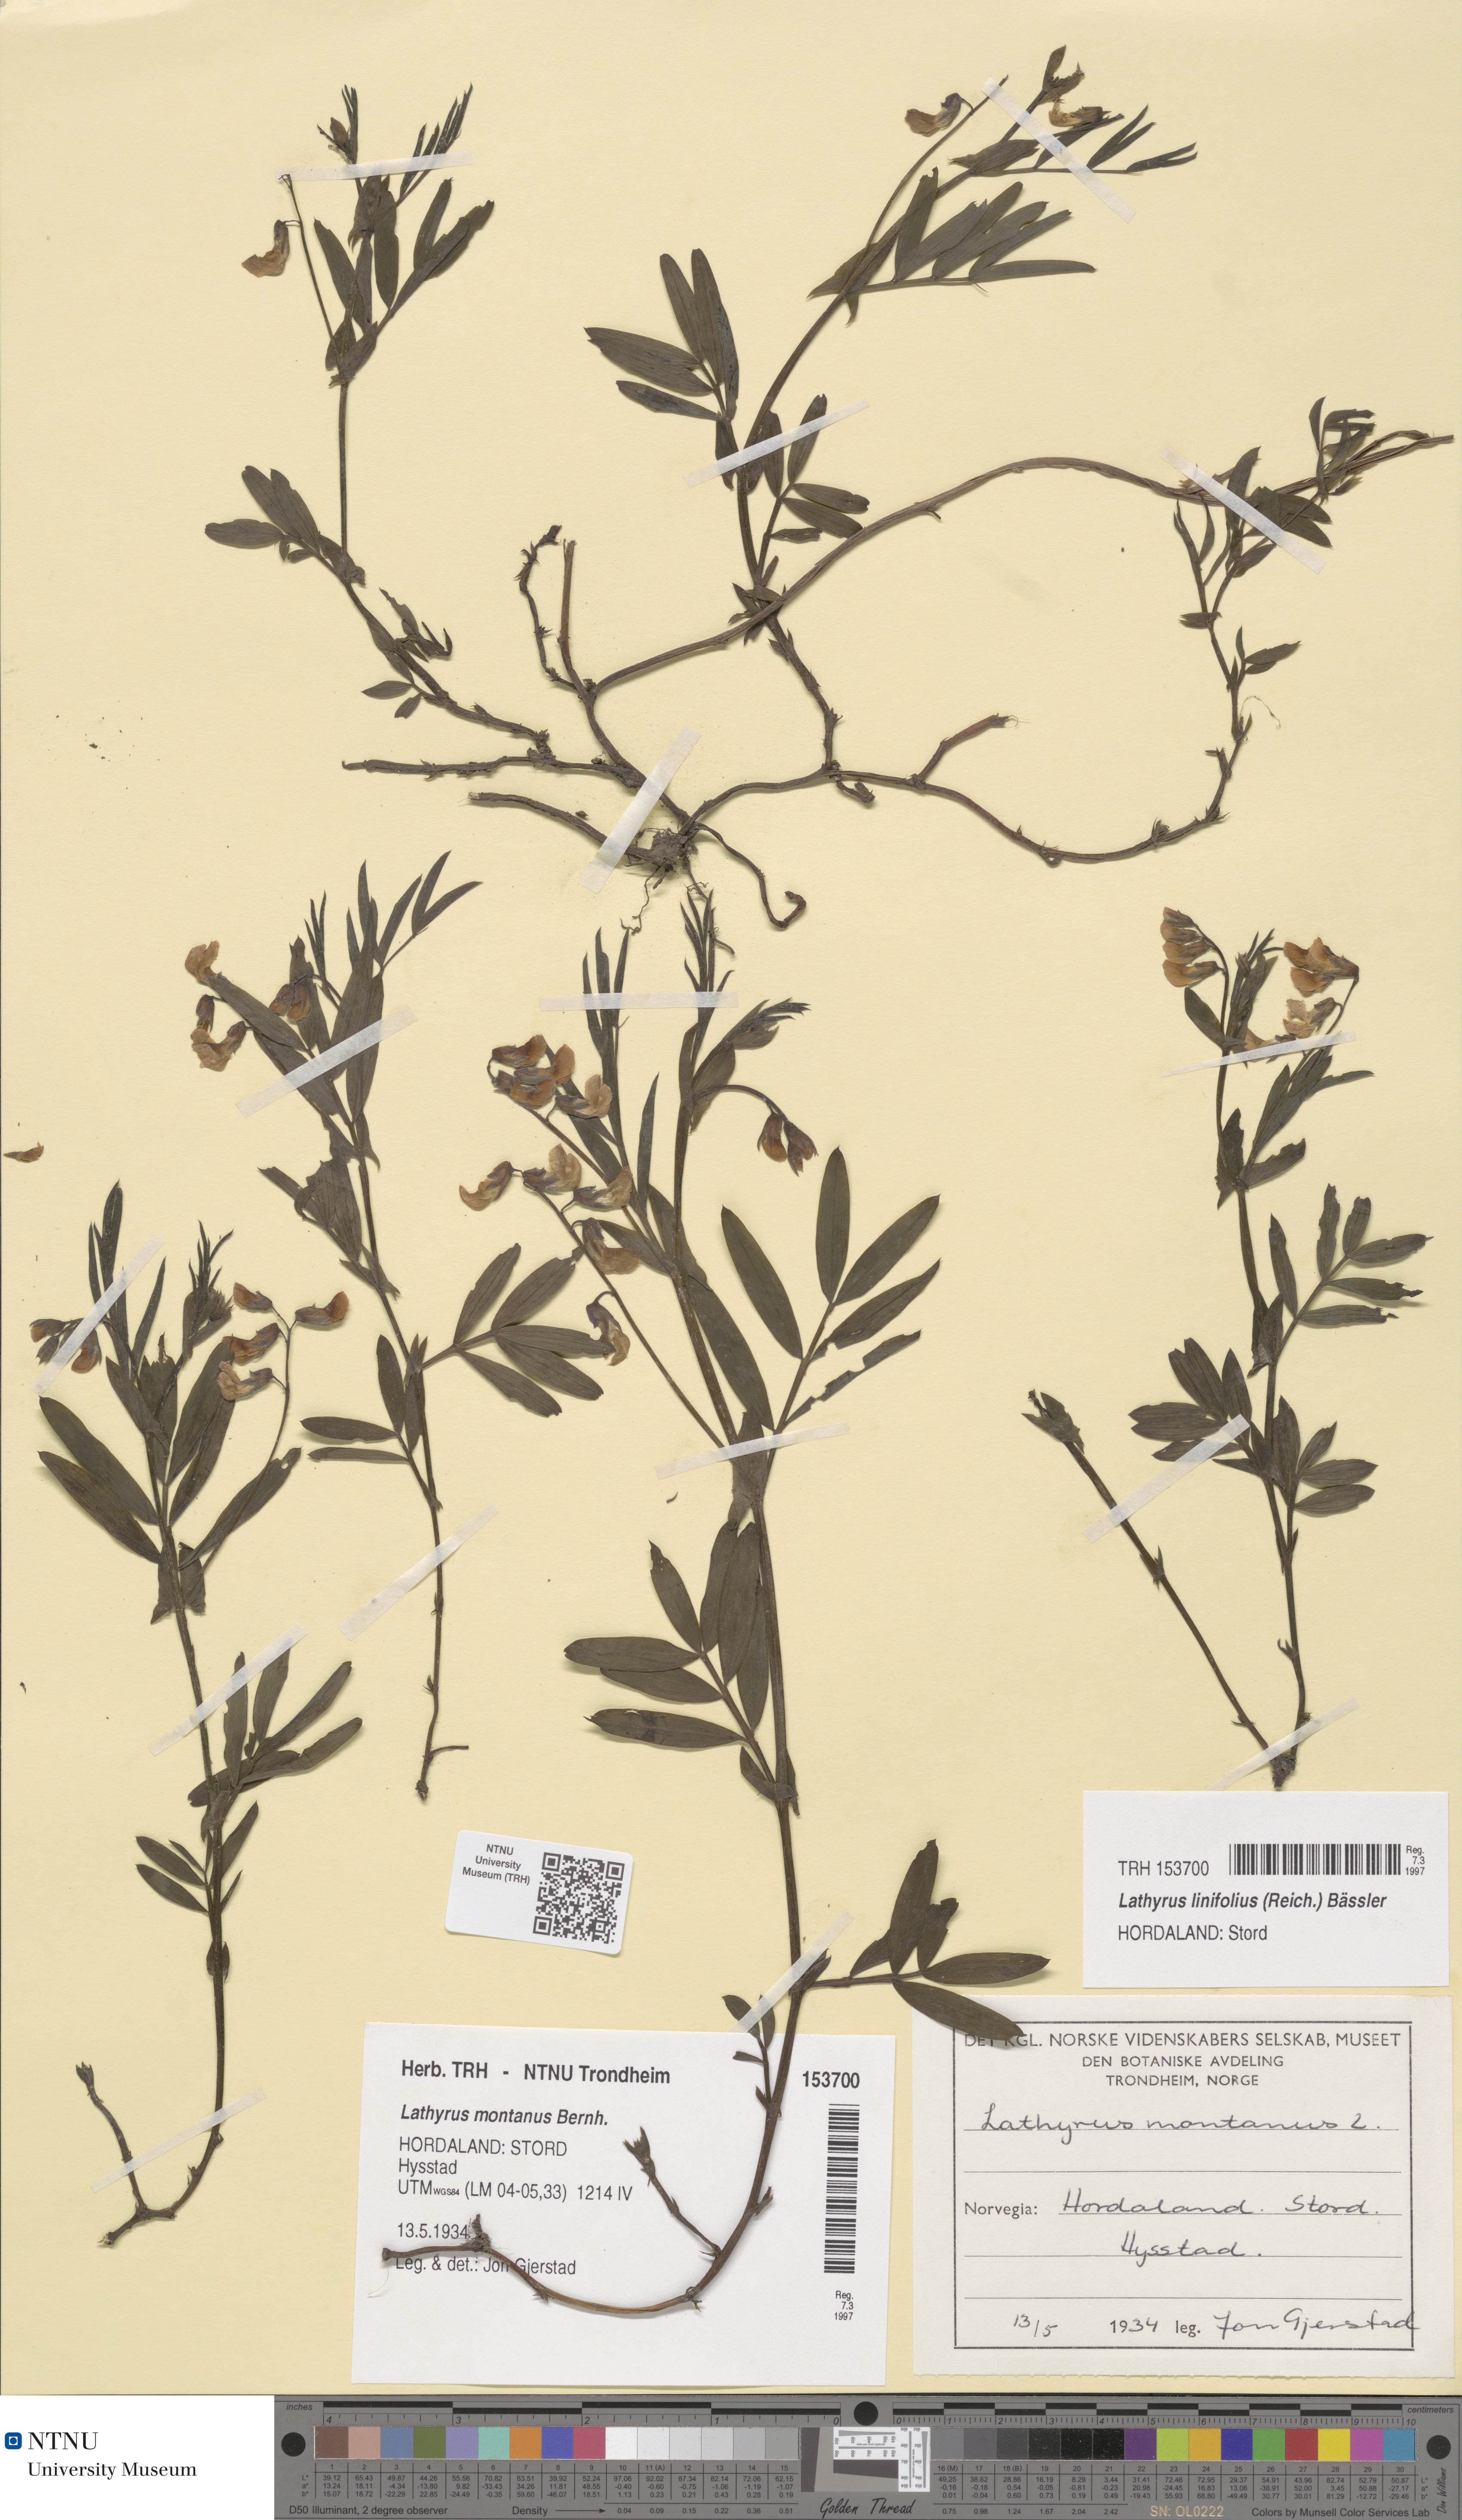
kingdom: Plantae
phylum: Tracheophyta
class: Magnoliopsida
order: Fabales
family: Fabaceae
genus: Lathyrus
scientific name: Lathyrus linifolius
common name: Bitter-vetch
